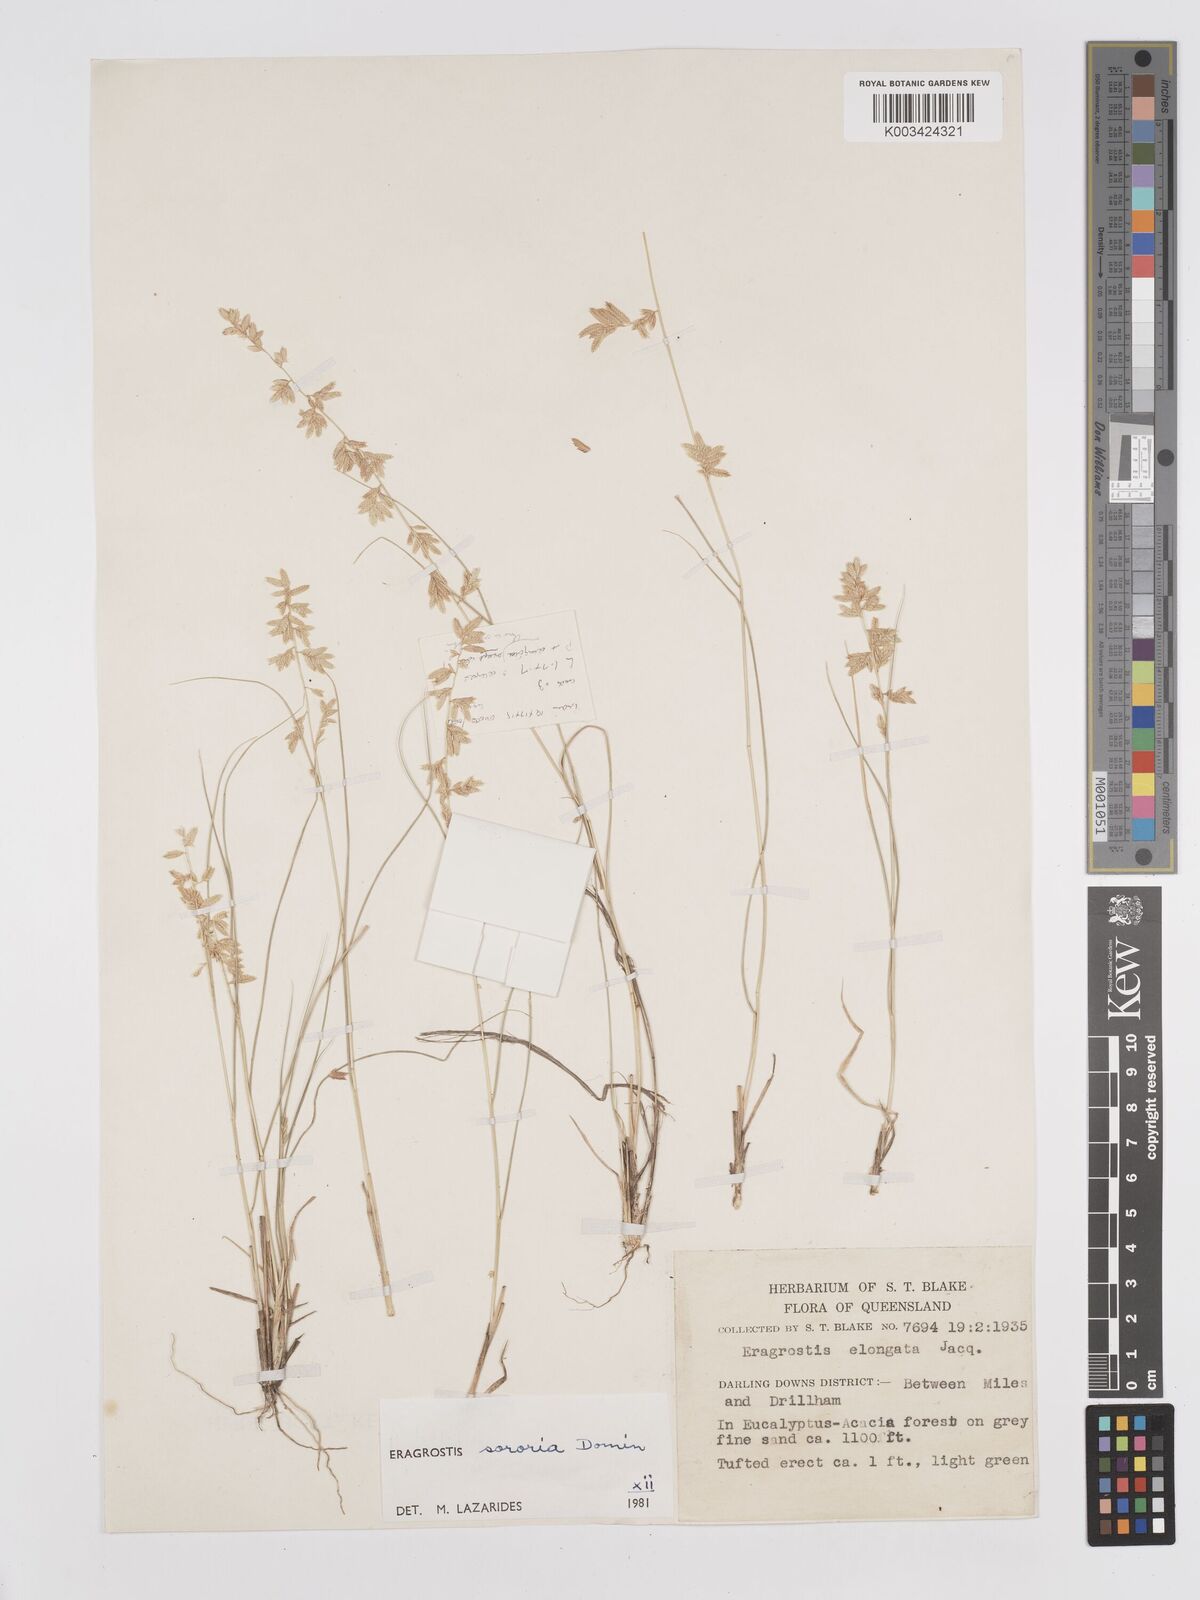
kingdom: Plantae
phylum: Tracheophyta
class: Liliopsida
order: Poales
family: Poaceae
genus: Eragrostis
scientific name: Eragrostis sororia
